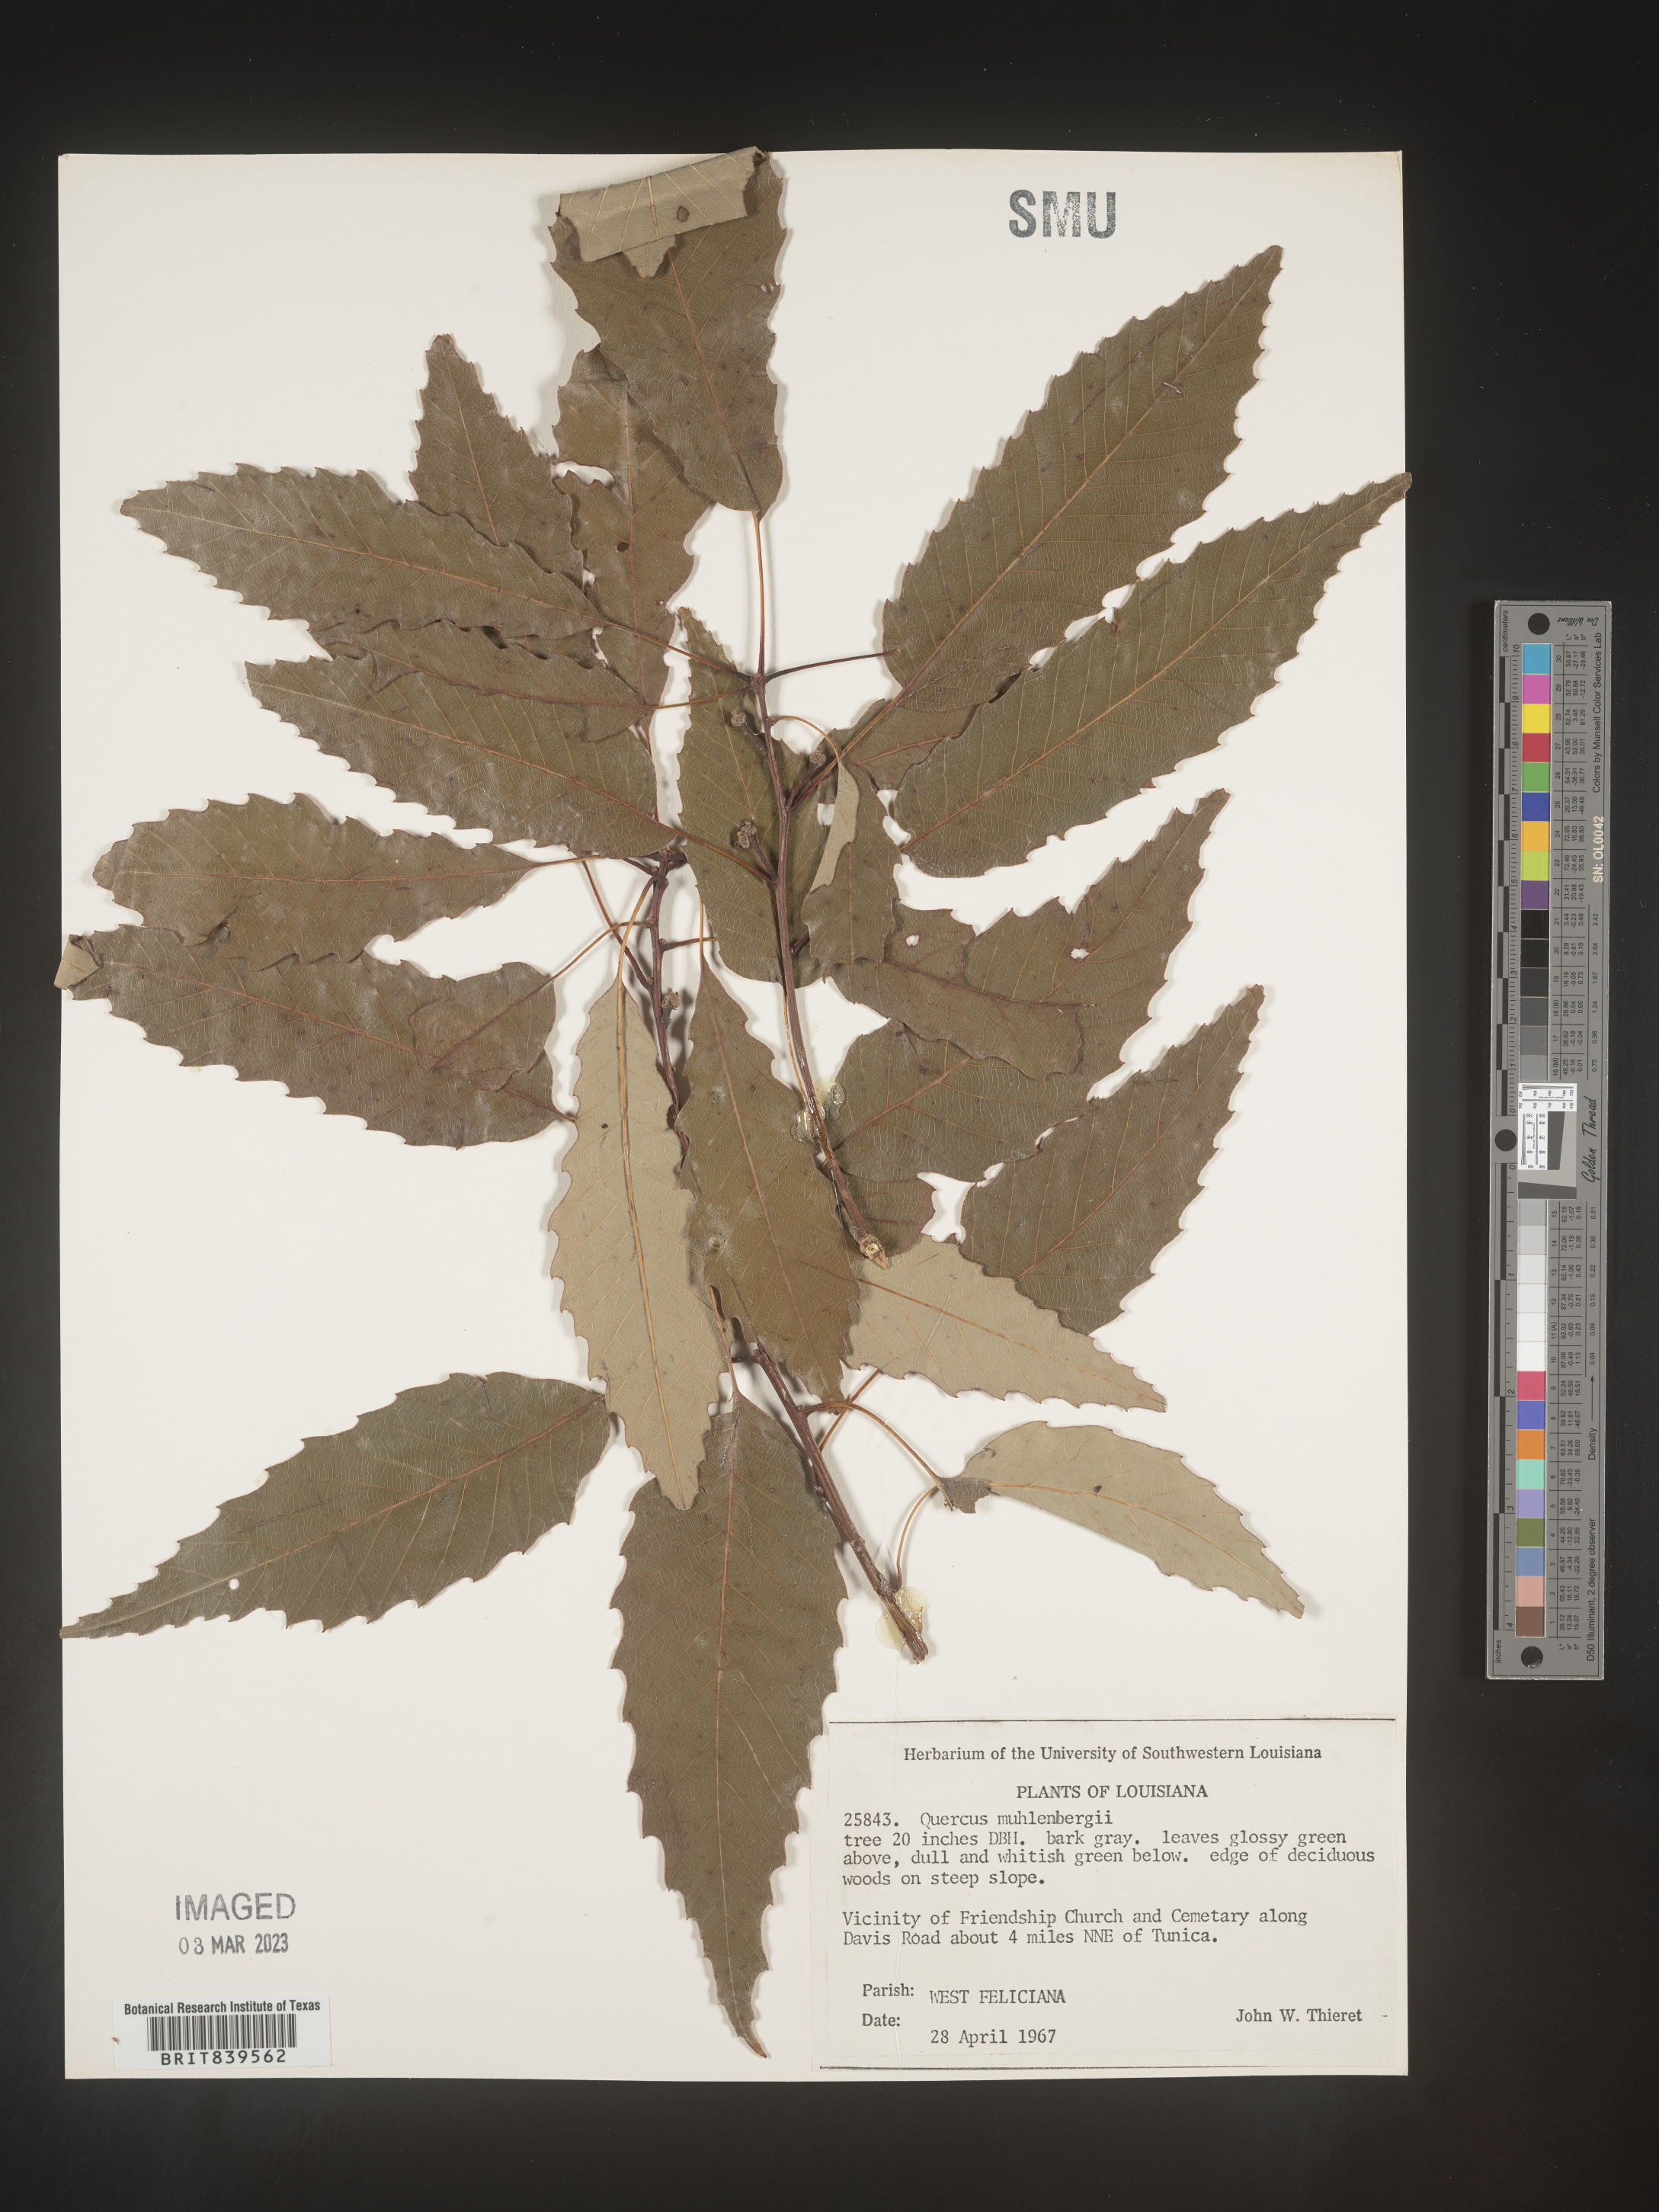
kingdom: Plantae
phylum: Tracheophyta
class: Magnoliopsida
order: Fagales
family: Fagaceae
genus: Quercus
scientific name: Quercus muehlenbergii
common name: Chinkapin oak
